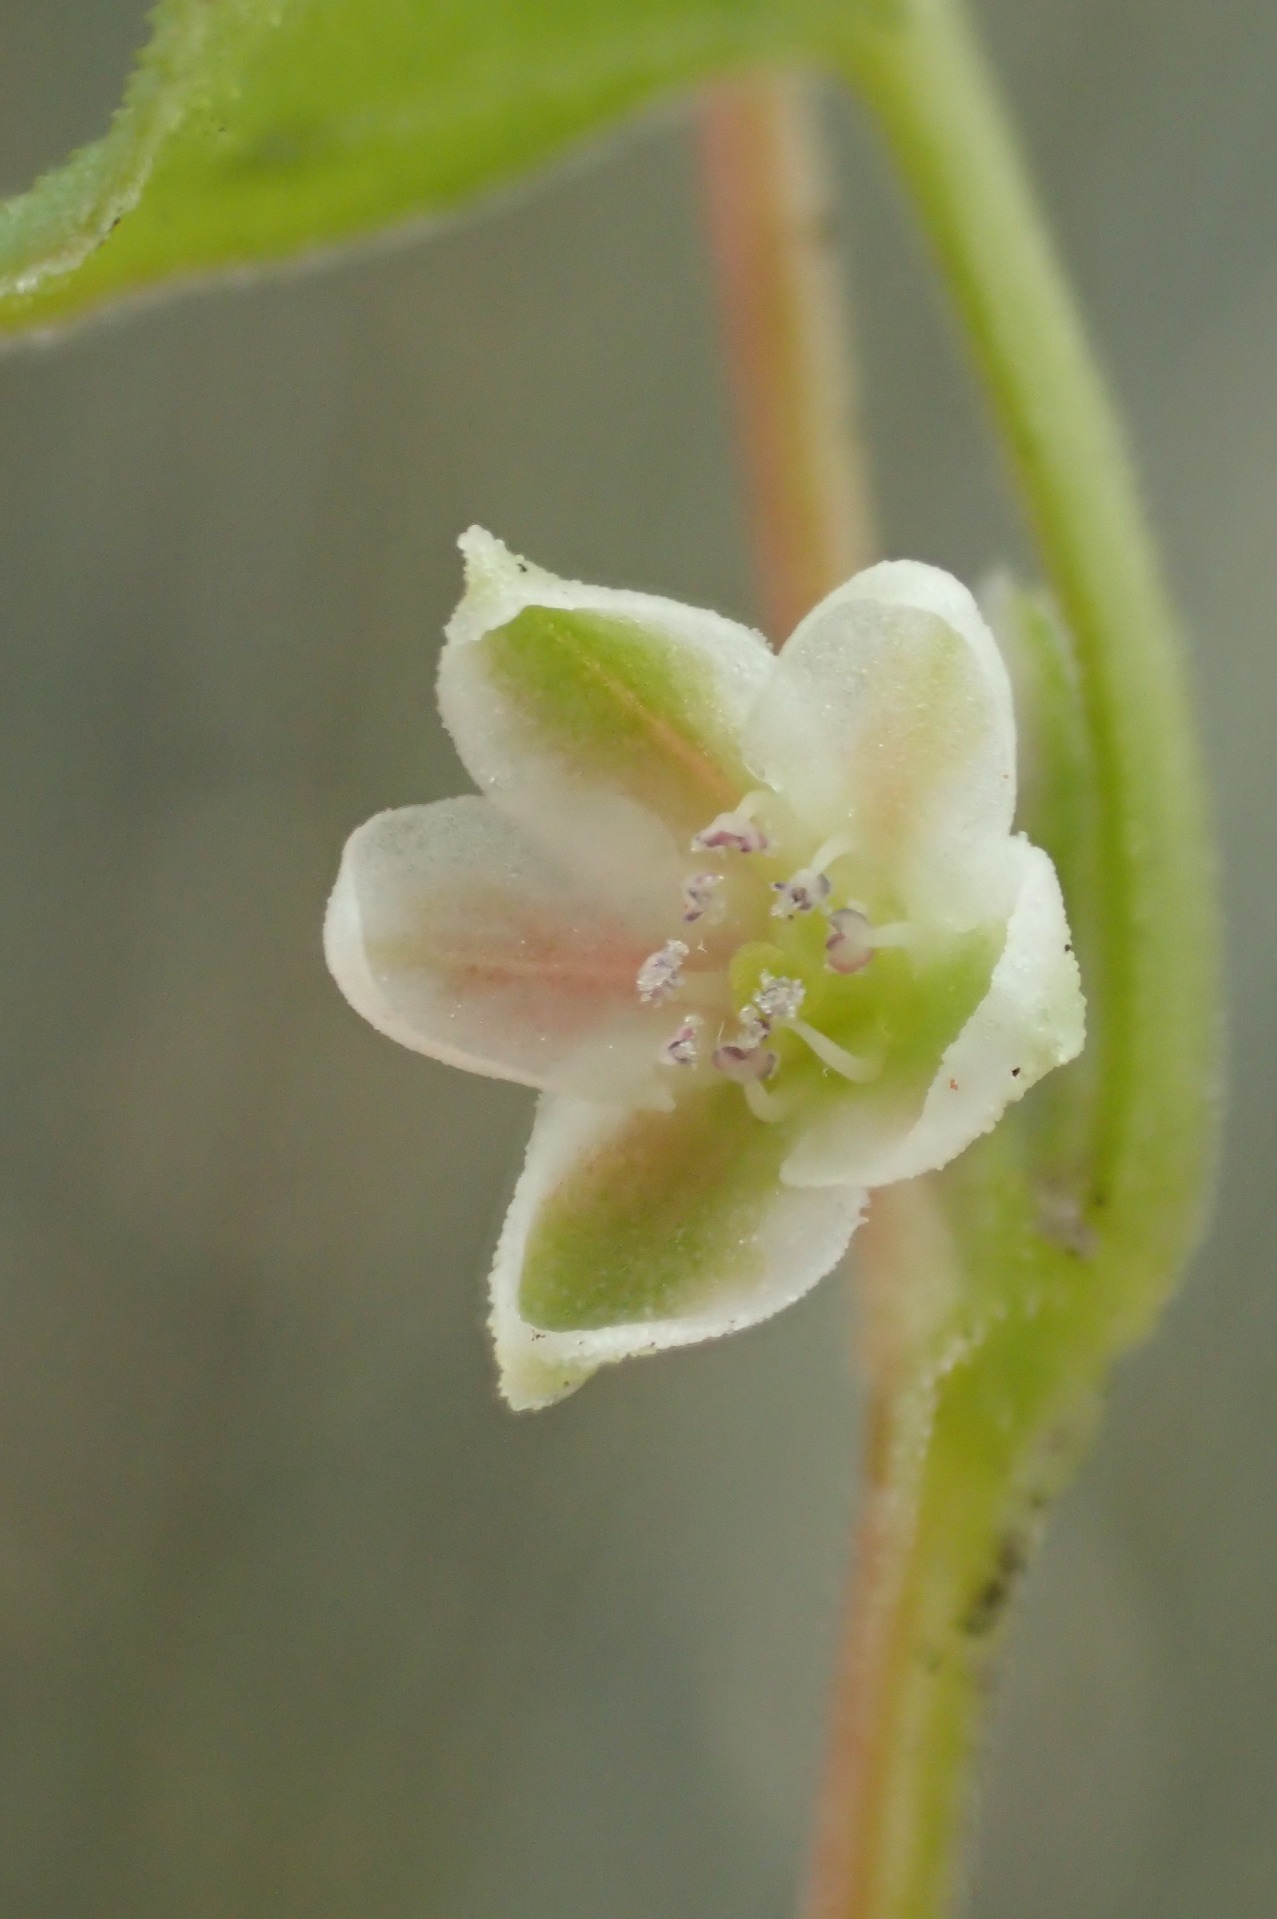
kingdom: Plantae
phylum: Tracheophyta
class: Magnoliopsida
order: Caryophyllales
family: Polygonaceae
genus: Fallopia
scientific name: Fallopia convolvulus
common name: Snerle-pileurt
